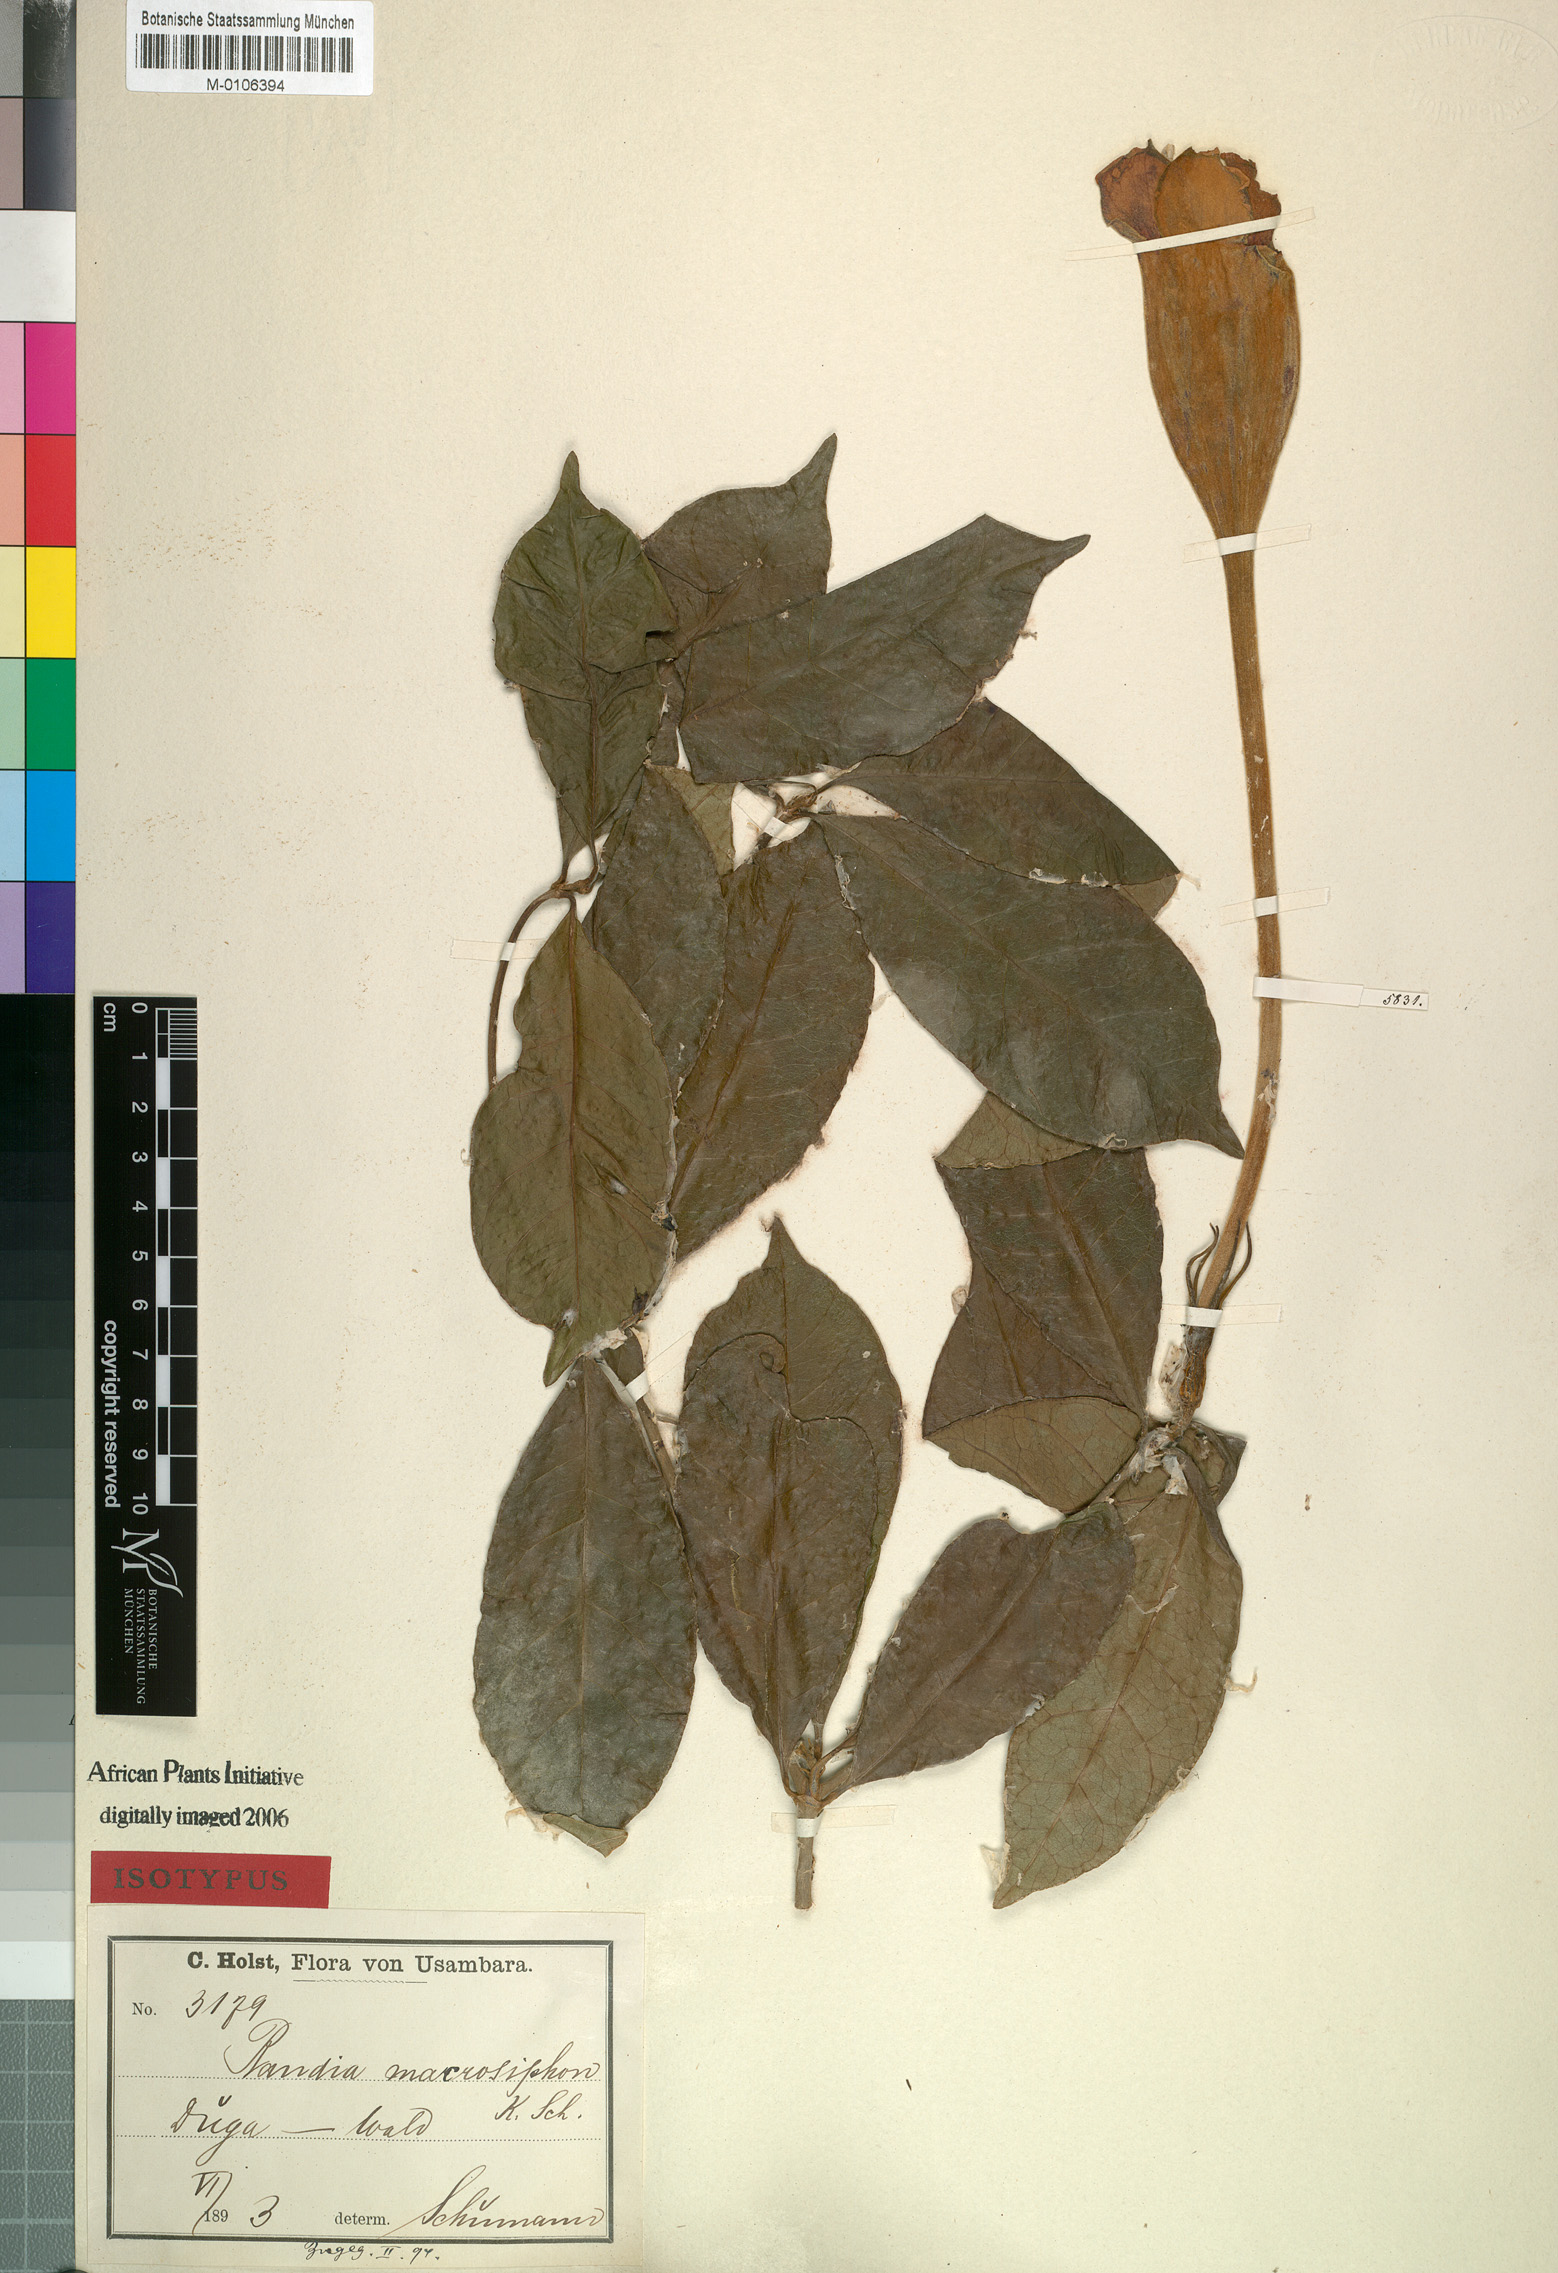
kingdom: Plantae
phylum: Tracheophyta
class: Magnoliopsida
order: Gentianales
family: Rubiaceae
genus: Rothmannia
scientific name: Rothmannia macrosiphon
